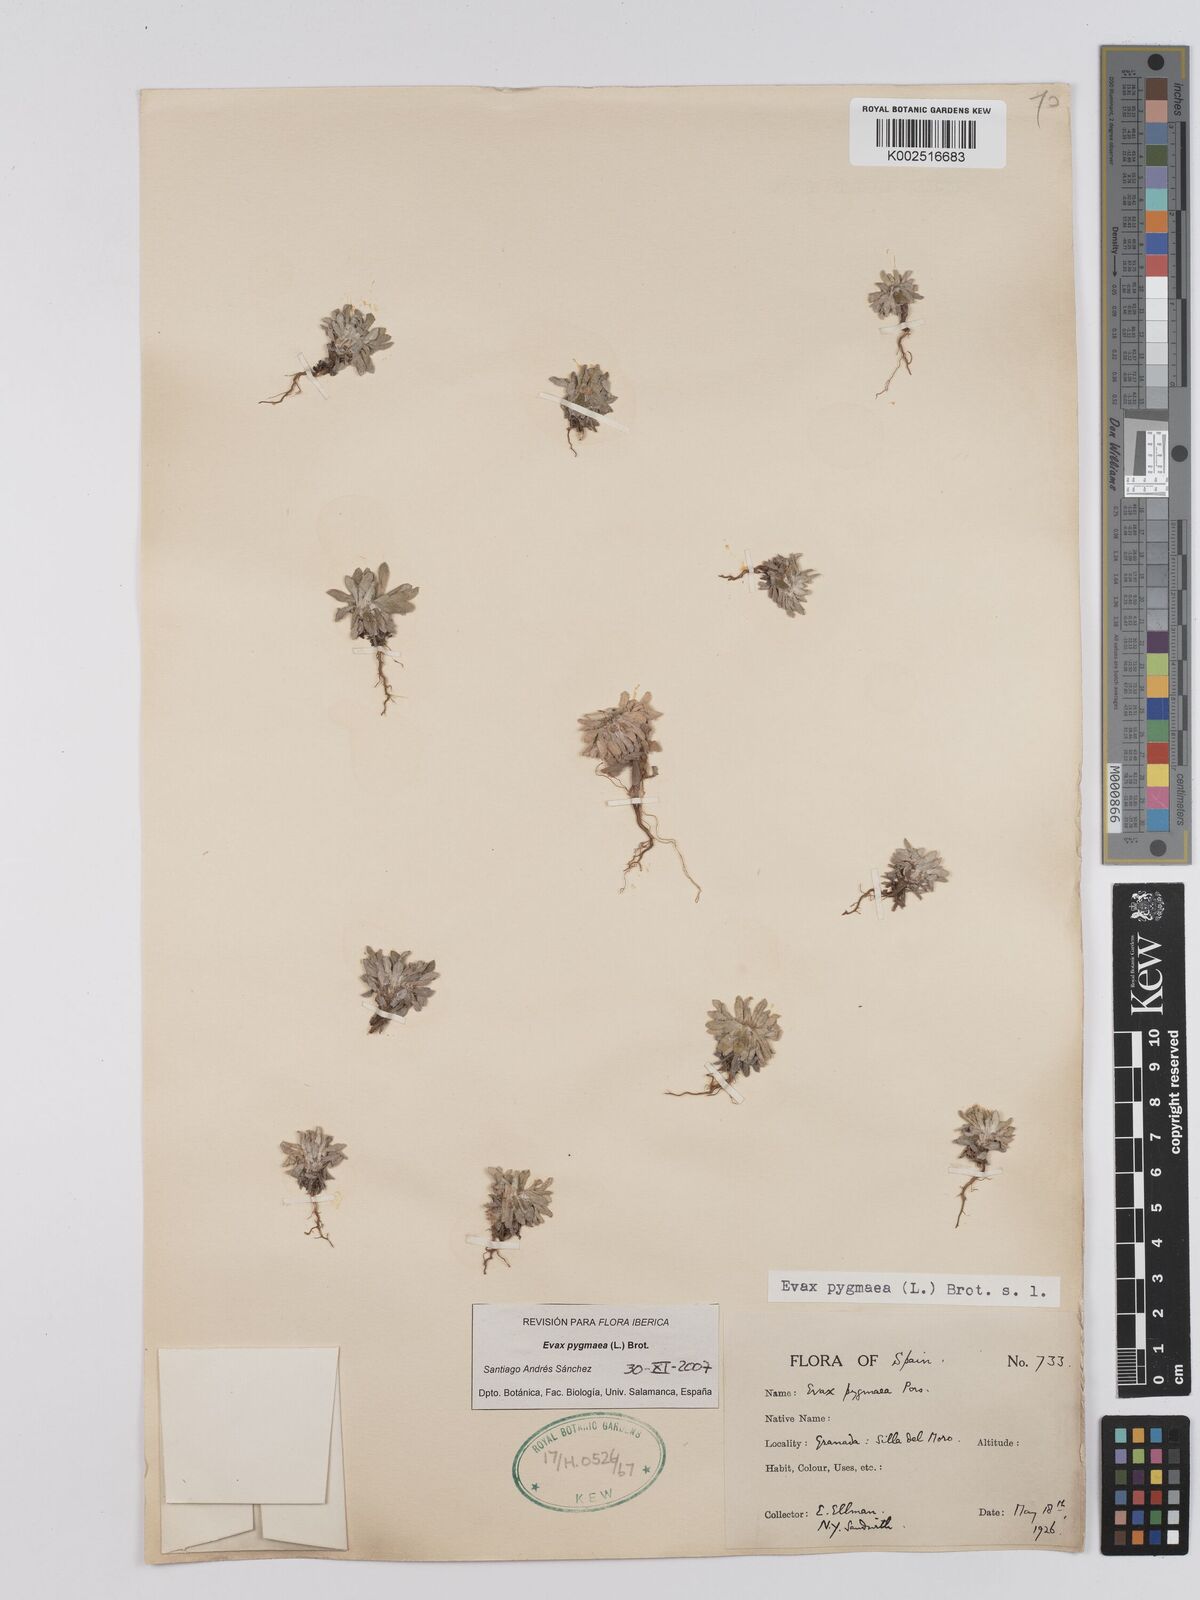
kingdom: Plantae
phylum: Tracheophyta
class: Magnoliopsida
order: Asterales
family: Asteraceae
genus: Filago
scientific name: Filago pygmaea
